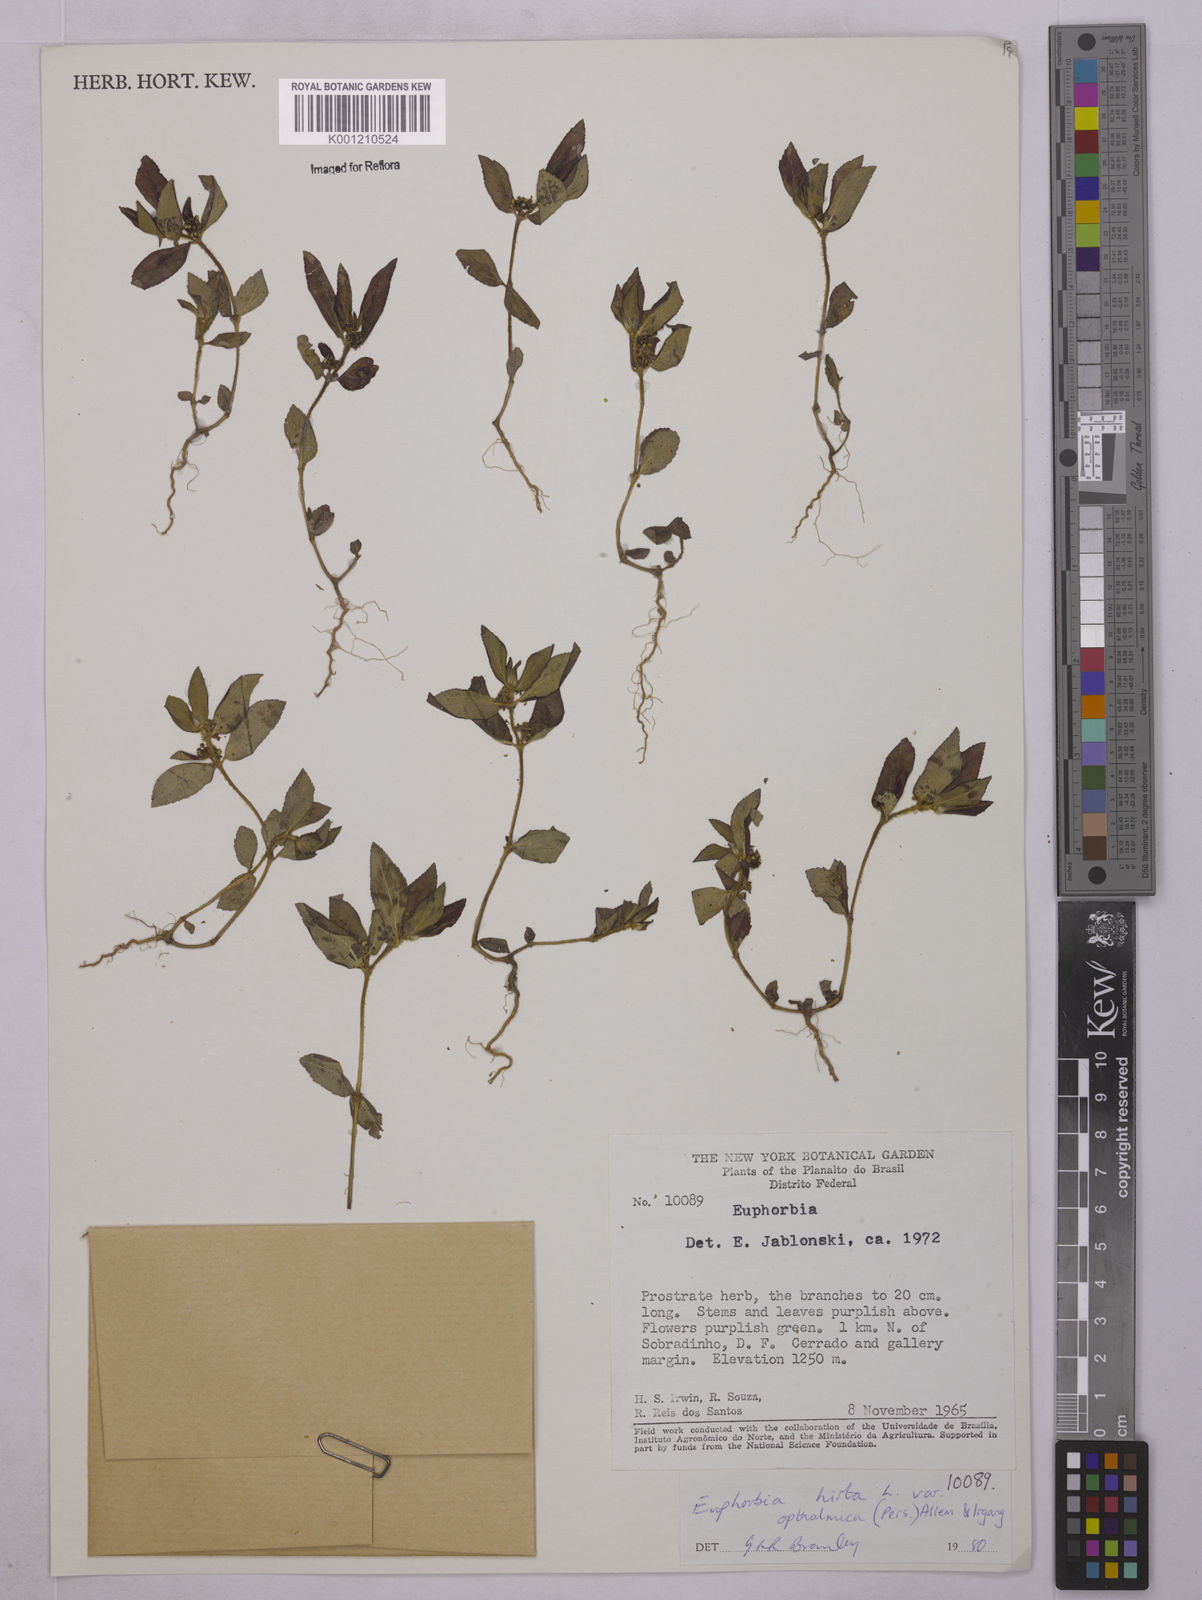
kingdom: Plantae
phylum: Tracheophyta
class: Magnoliopsida
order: Malpighiales
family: Euphorbiaceae
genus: Euphorbia
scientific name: Euphorbia ophthalmica
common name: Florida hammock sandmat
